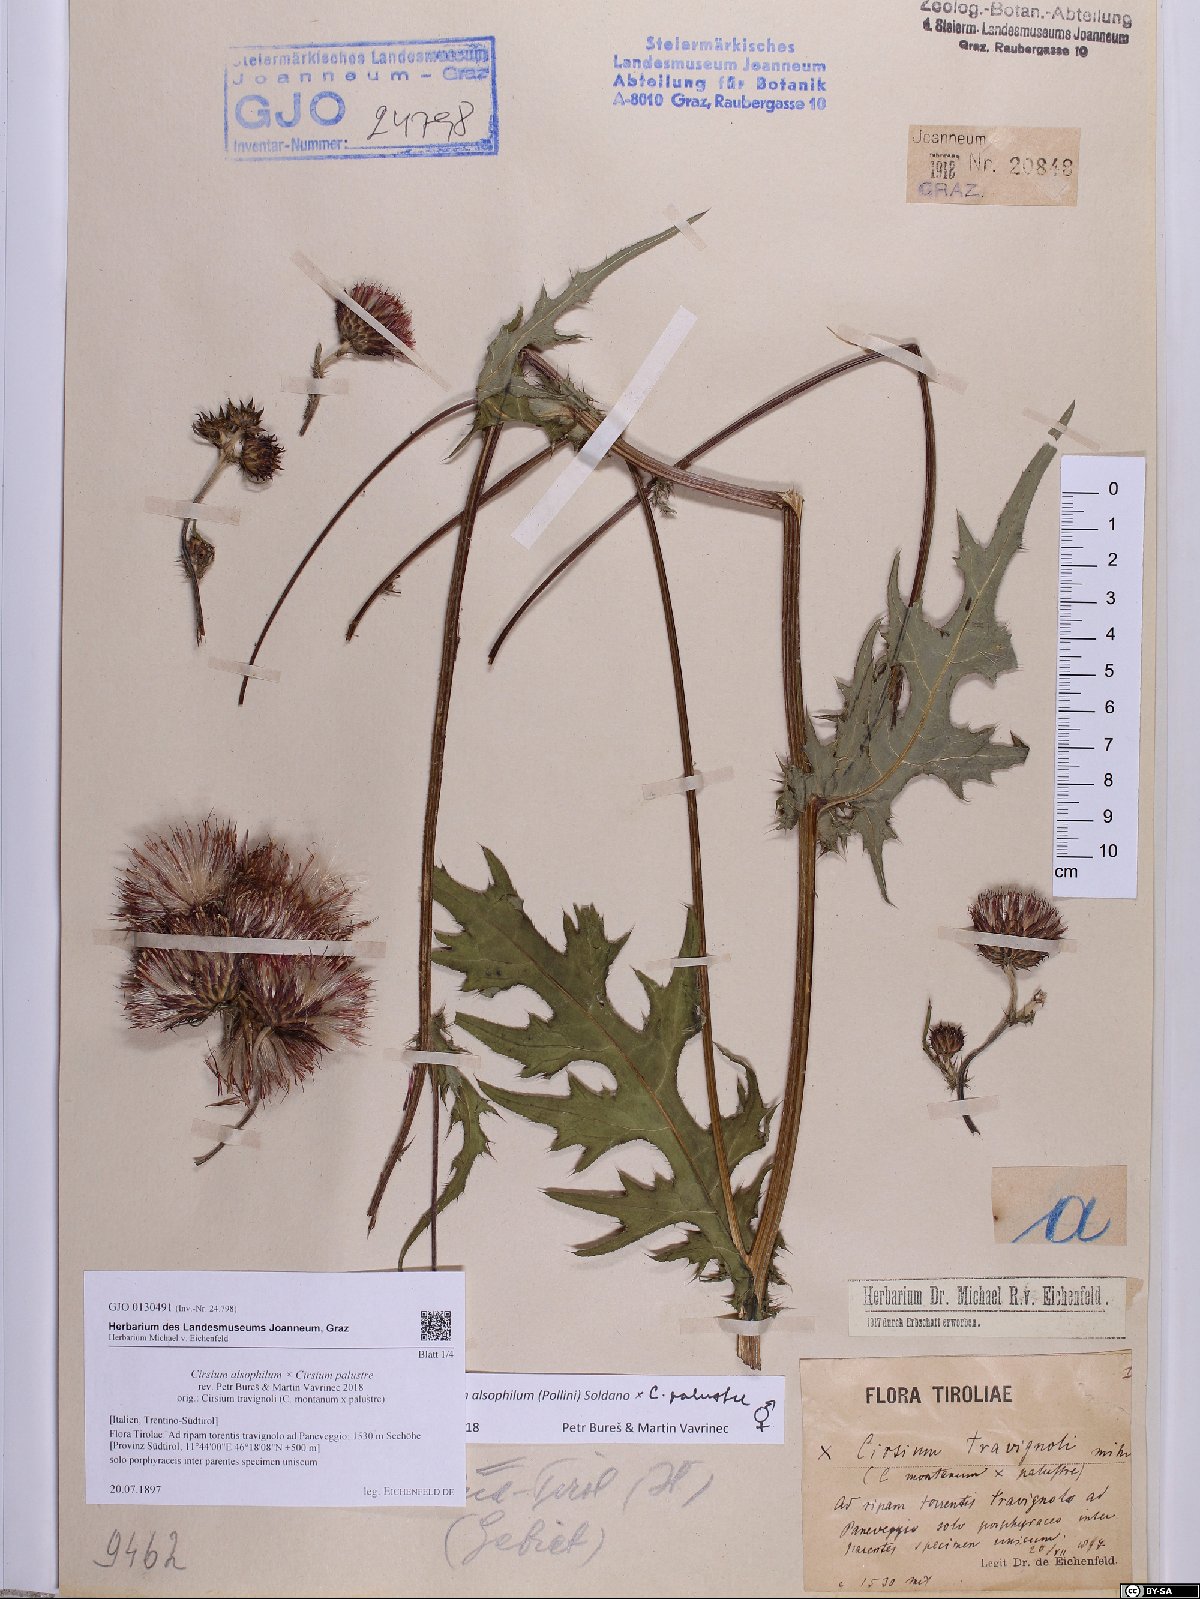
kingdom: Plantae
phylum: Tracheophyta
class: Magnoliopsida
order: Asterales
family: Asteraceae
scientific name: Asteraceae
